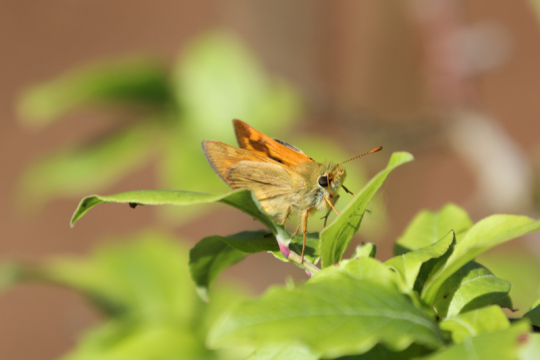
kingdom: Animalia
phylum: Arthropoda
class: Insecta
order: Lepidoptera
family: Hesperiidae
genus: Ochlodes
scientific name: Ochlodes sylvanoides
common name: Woodland Skipper
